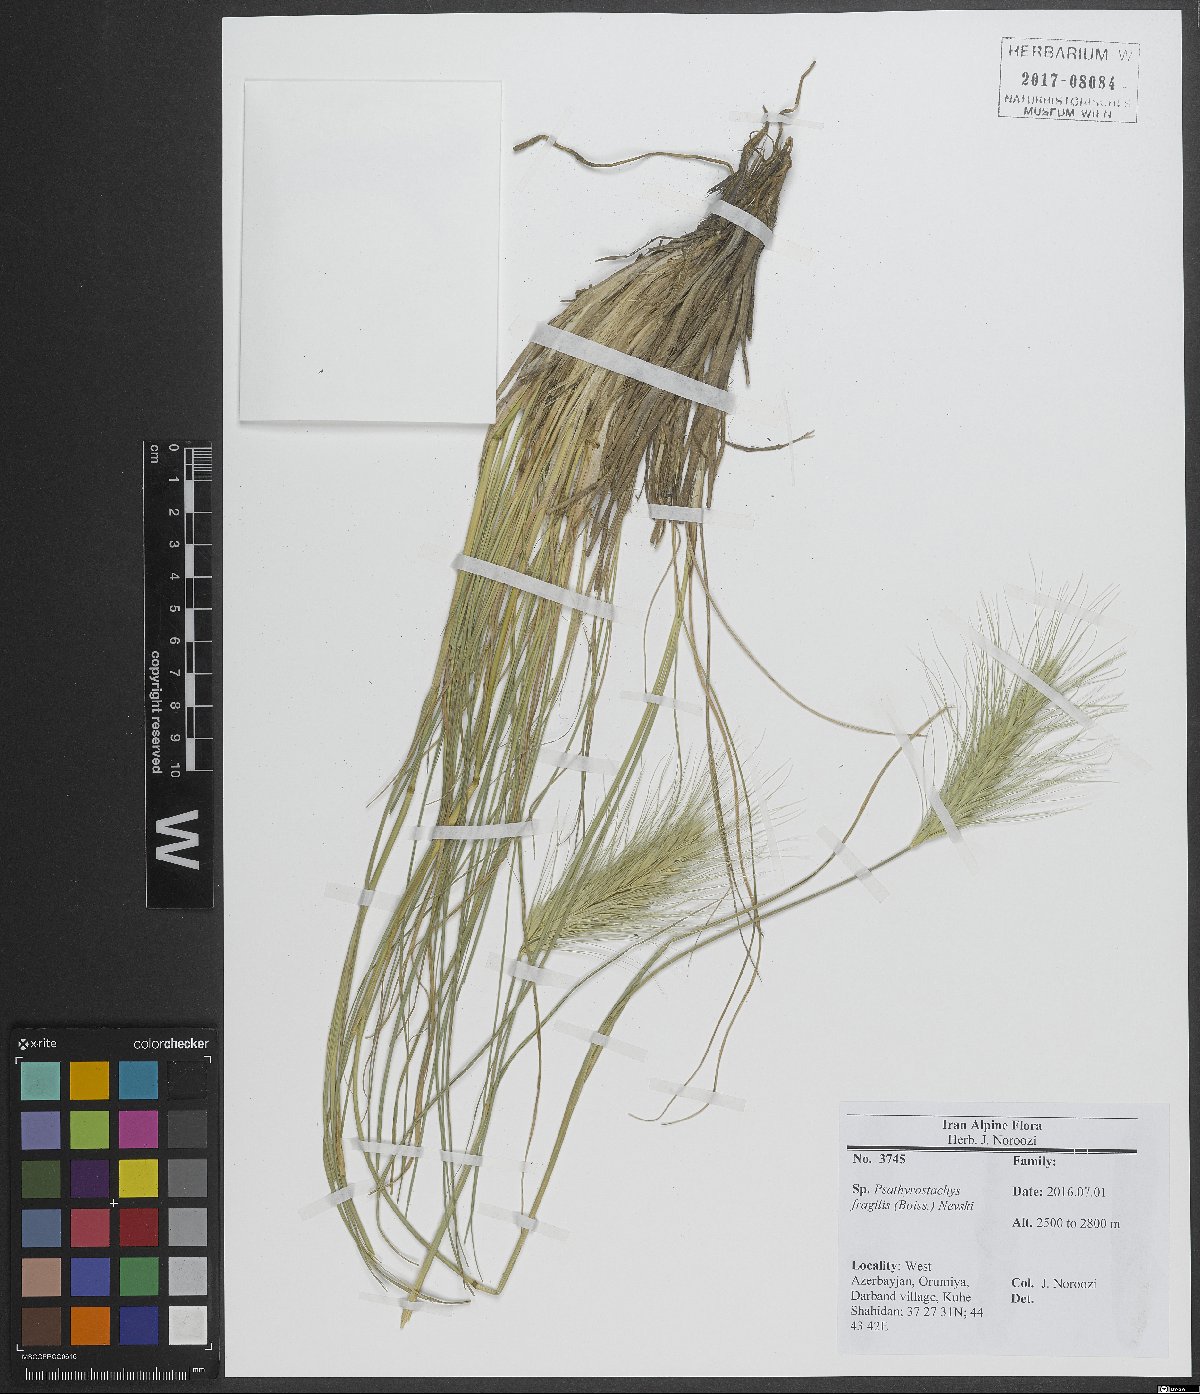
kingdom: Plantae
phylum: Tracheophyta
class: Liliopsida
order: Poales
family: Poaceae
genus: Psathyrostachys
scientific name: Psathyrostachys fragilis
